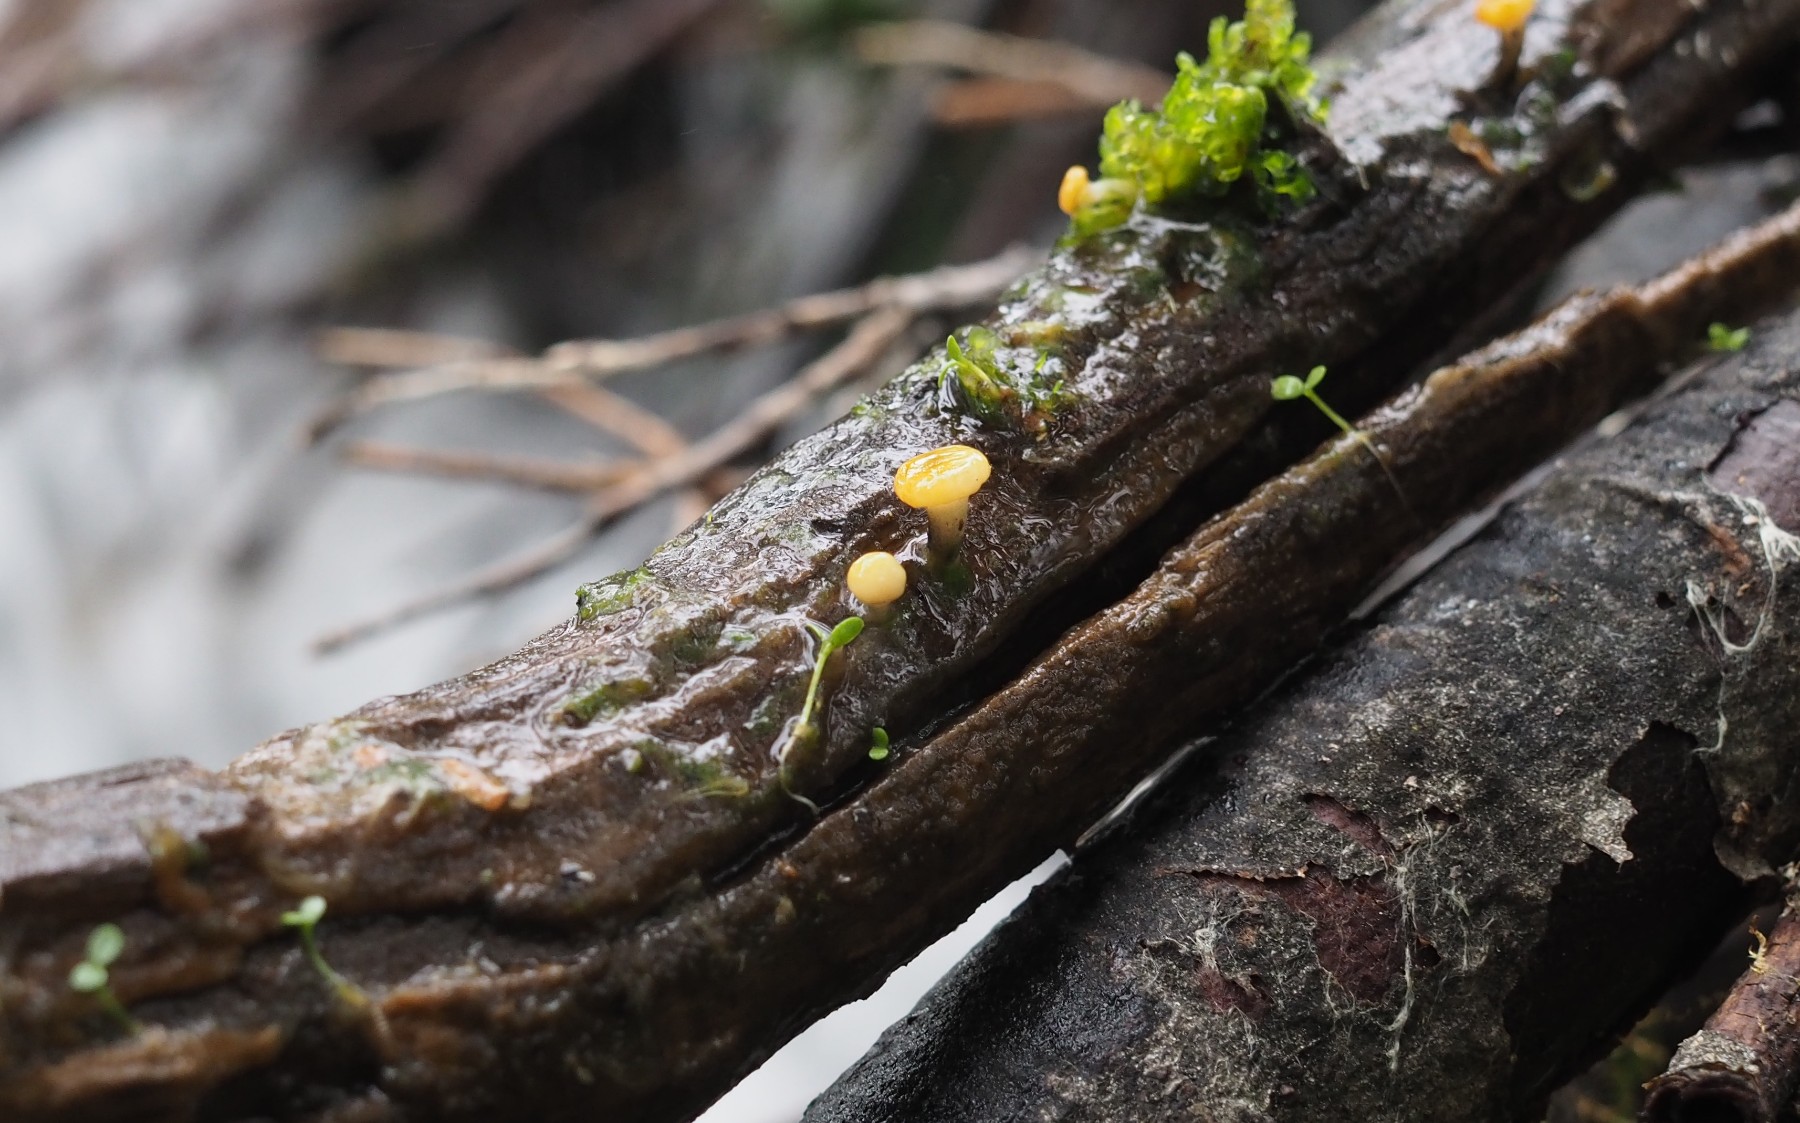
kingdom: Fungi
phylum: Ascomycota
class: Leotiomycetes
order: Helotiales
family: Vibrisseaceae
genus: Vibrissea
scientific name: Vibrissea truncorum
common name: stilket bækskive
